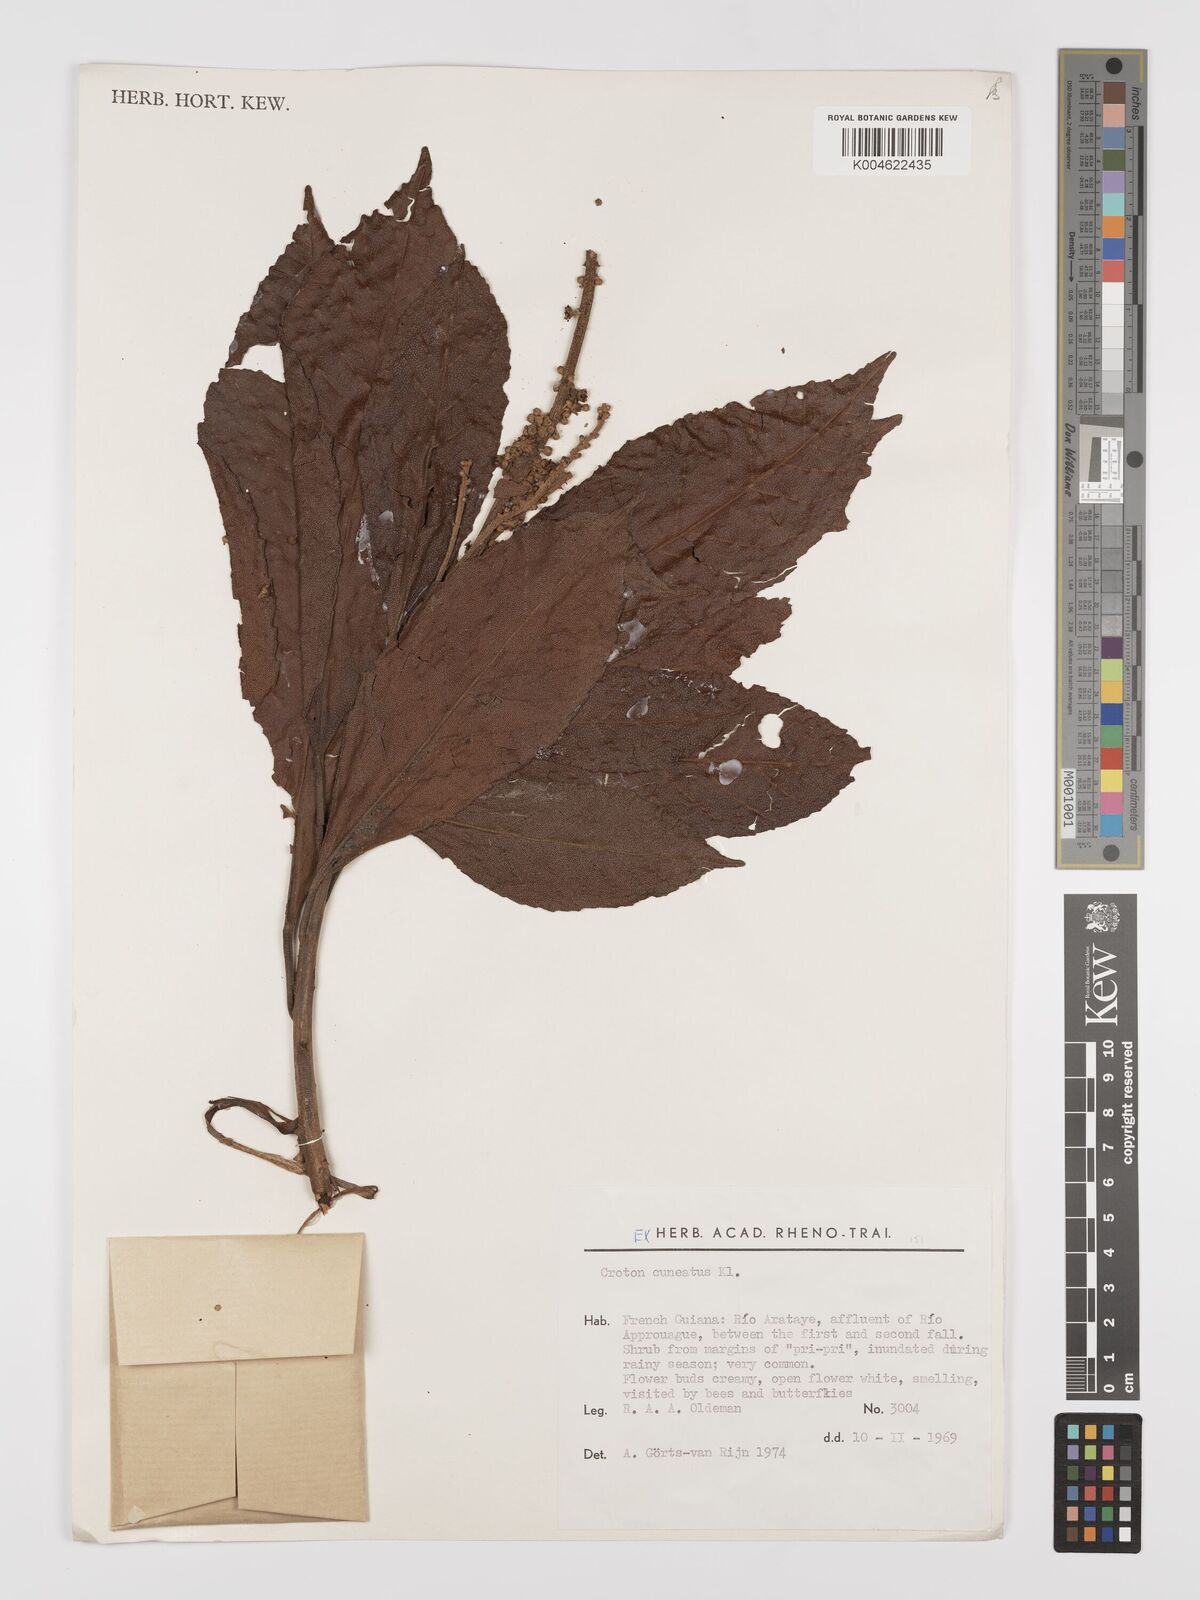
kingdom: Plantae
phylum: Tracheophyta
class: Magnoliopsida
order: Malpighiales
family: Euphorbiaceae
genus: Croton
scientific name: Croton
